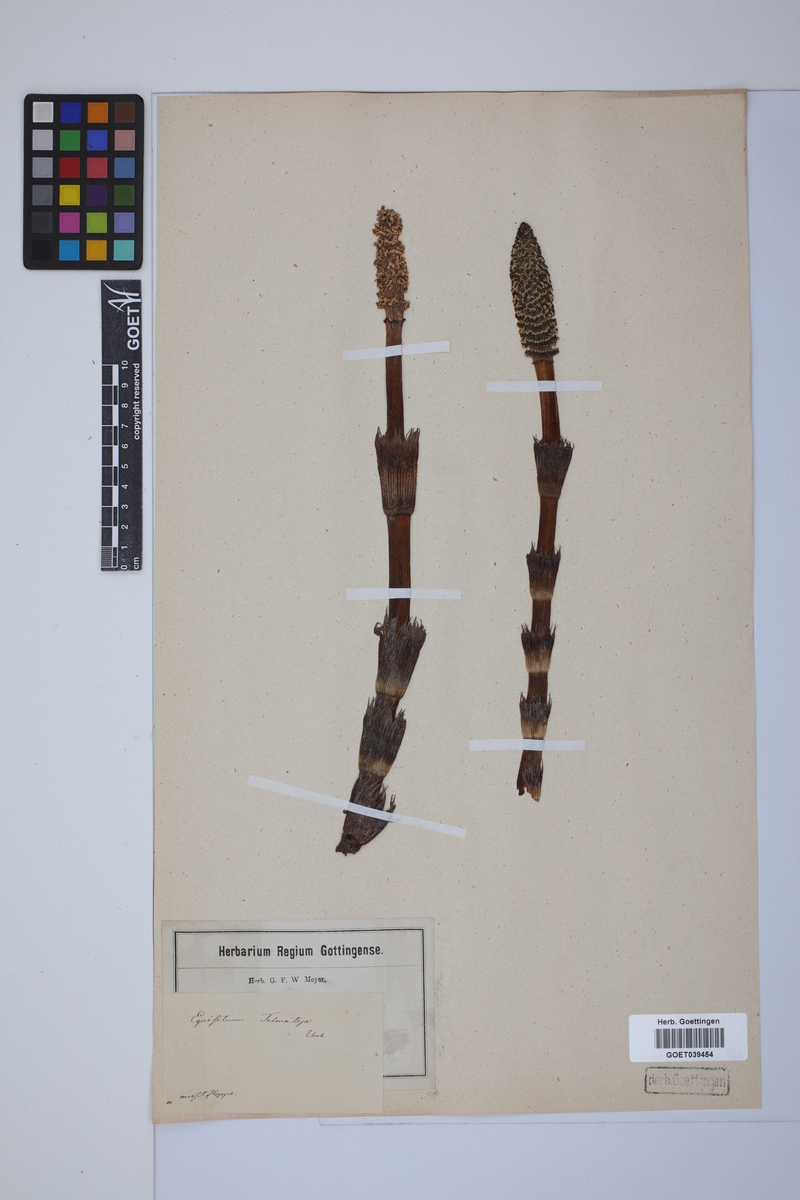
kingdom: Plantae
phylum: Tracheophyta
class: Polypodiopsida
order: Equisetales
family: Equisetaceae
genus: Equisetum
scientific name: Equisetum telmateia
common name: Great horsetail
